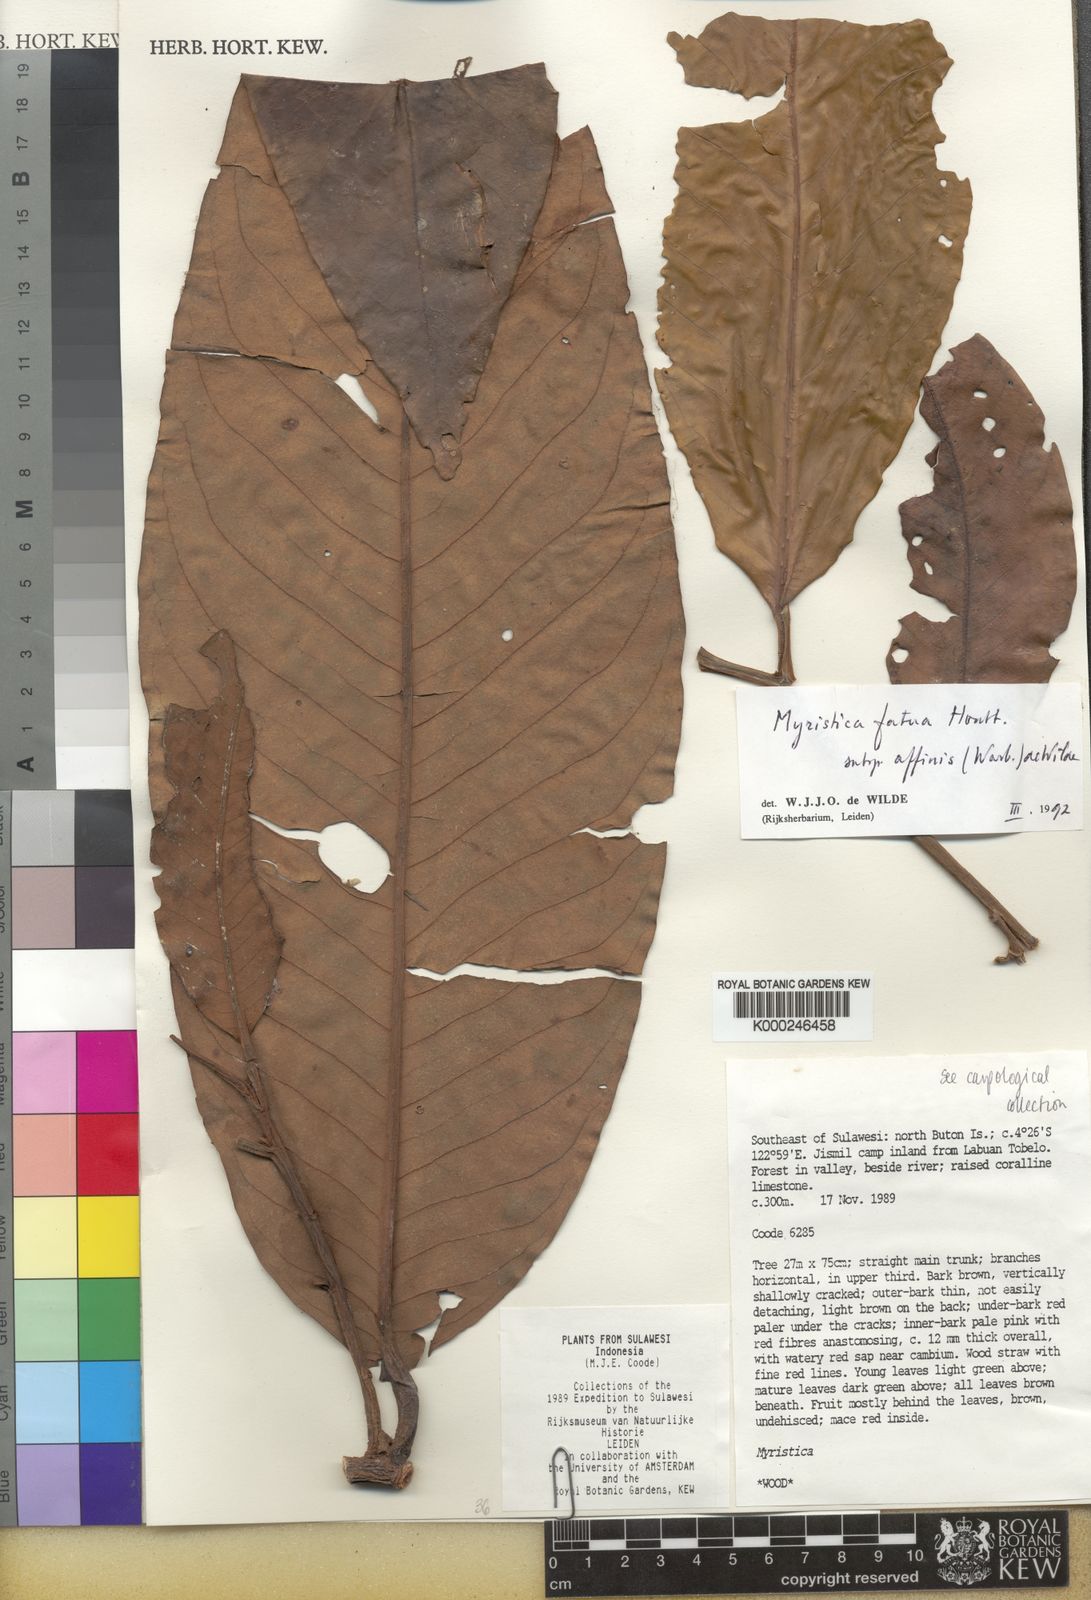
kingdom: Plantae
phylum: Tracheophyta
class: Magnoliopsida
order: Magnoliales
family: Myristicaceae
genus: Myristica
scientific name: Myristica fatua
